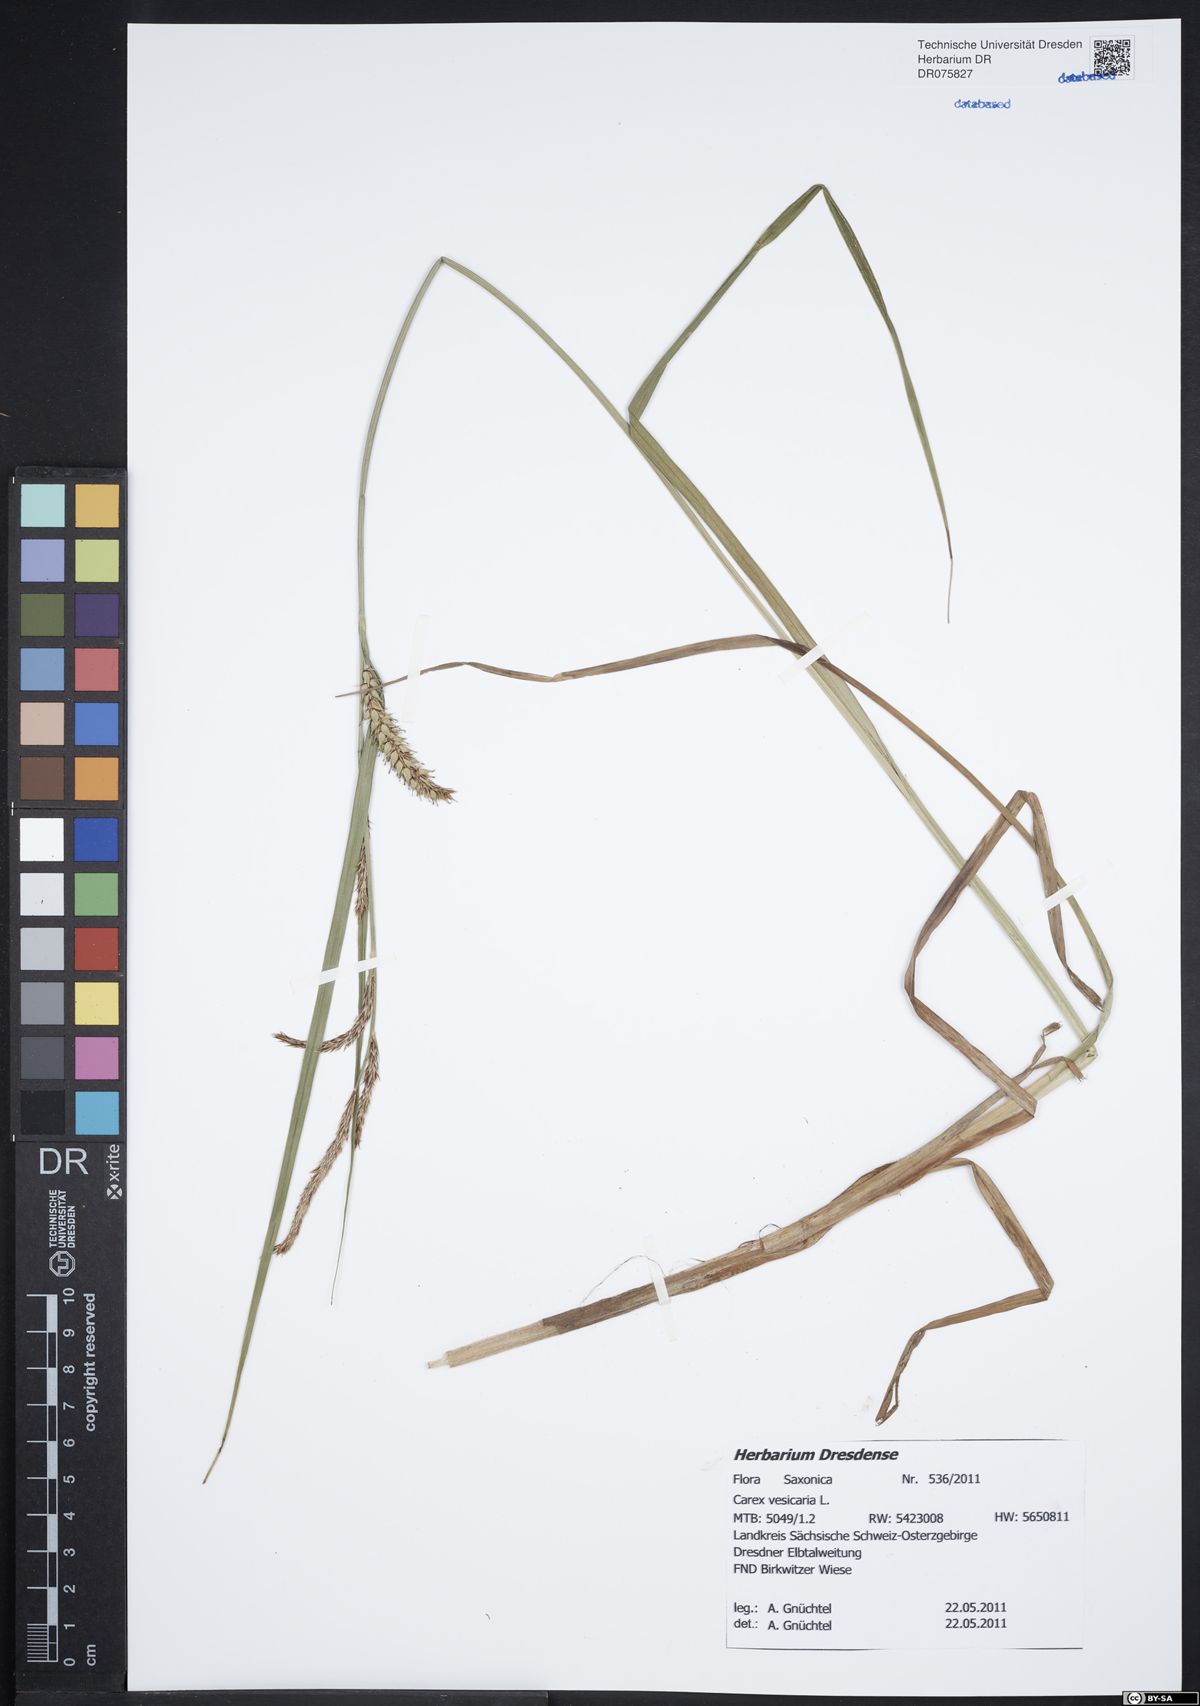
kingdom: Plantae
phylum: Tracheophyta
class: Liliopsida
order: Poales
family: Cyperaceae
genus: Carex
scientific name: Carex vesicaria
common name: Bladder-sedge
